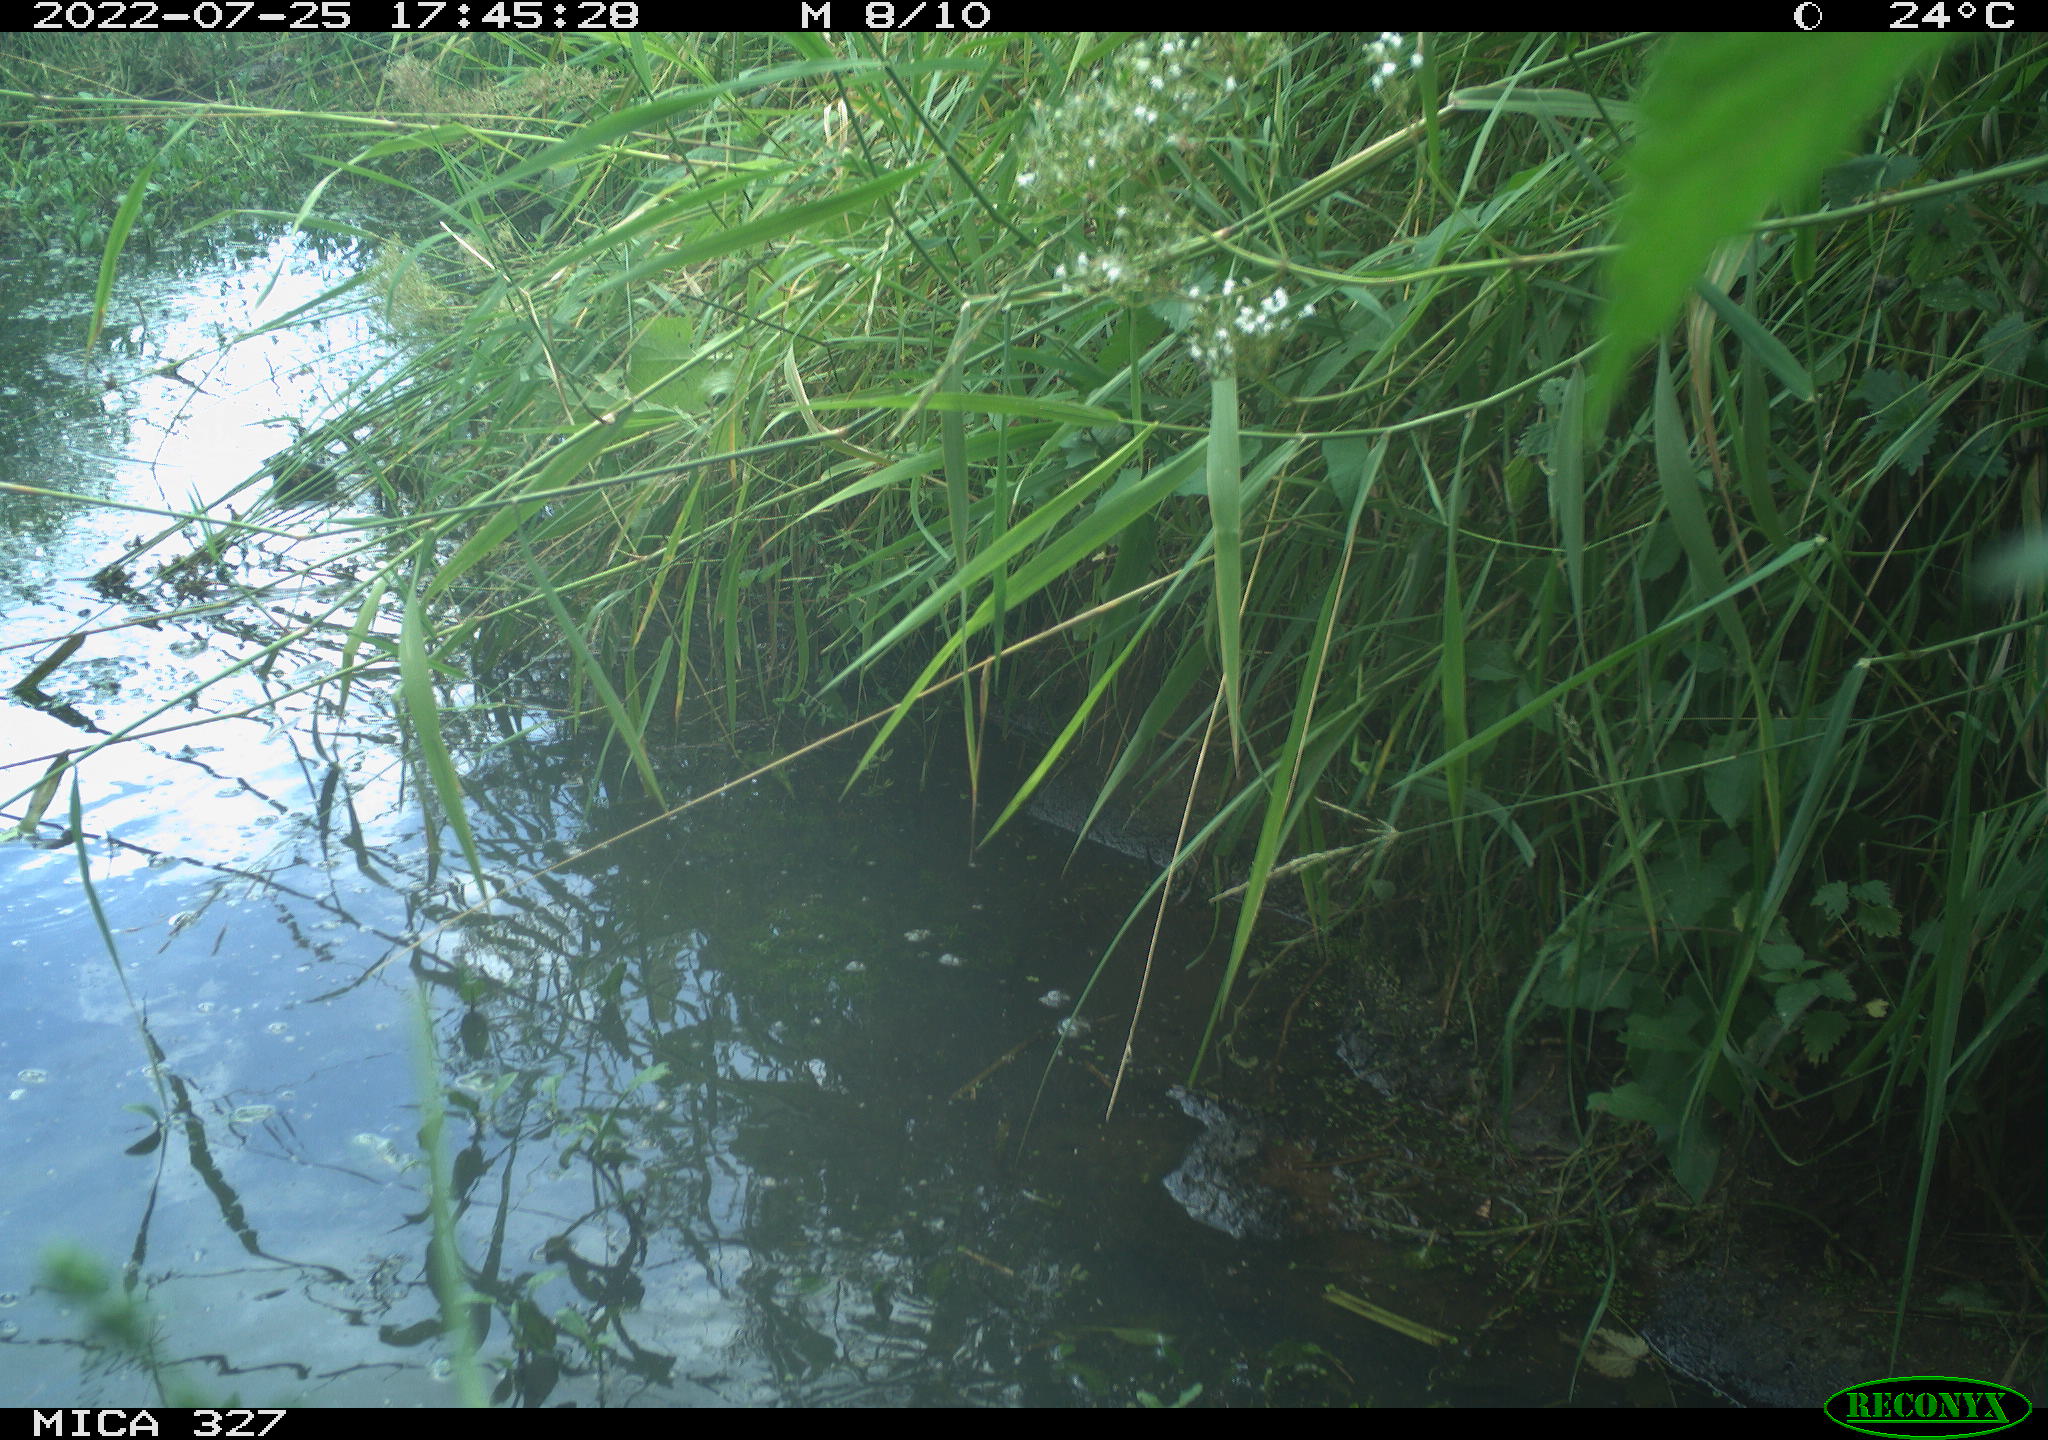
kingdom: Animalia
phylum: Chordata
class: Aves
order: Gruiformes
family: Rallidae
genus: Gallinula
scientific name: Gallinula chloropus
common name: Common moorhen
